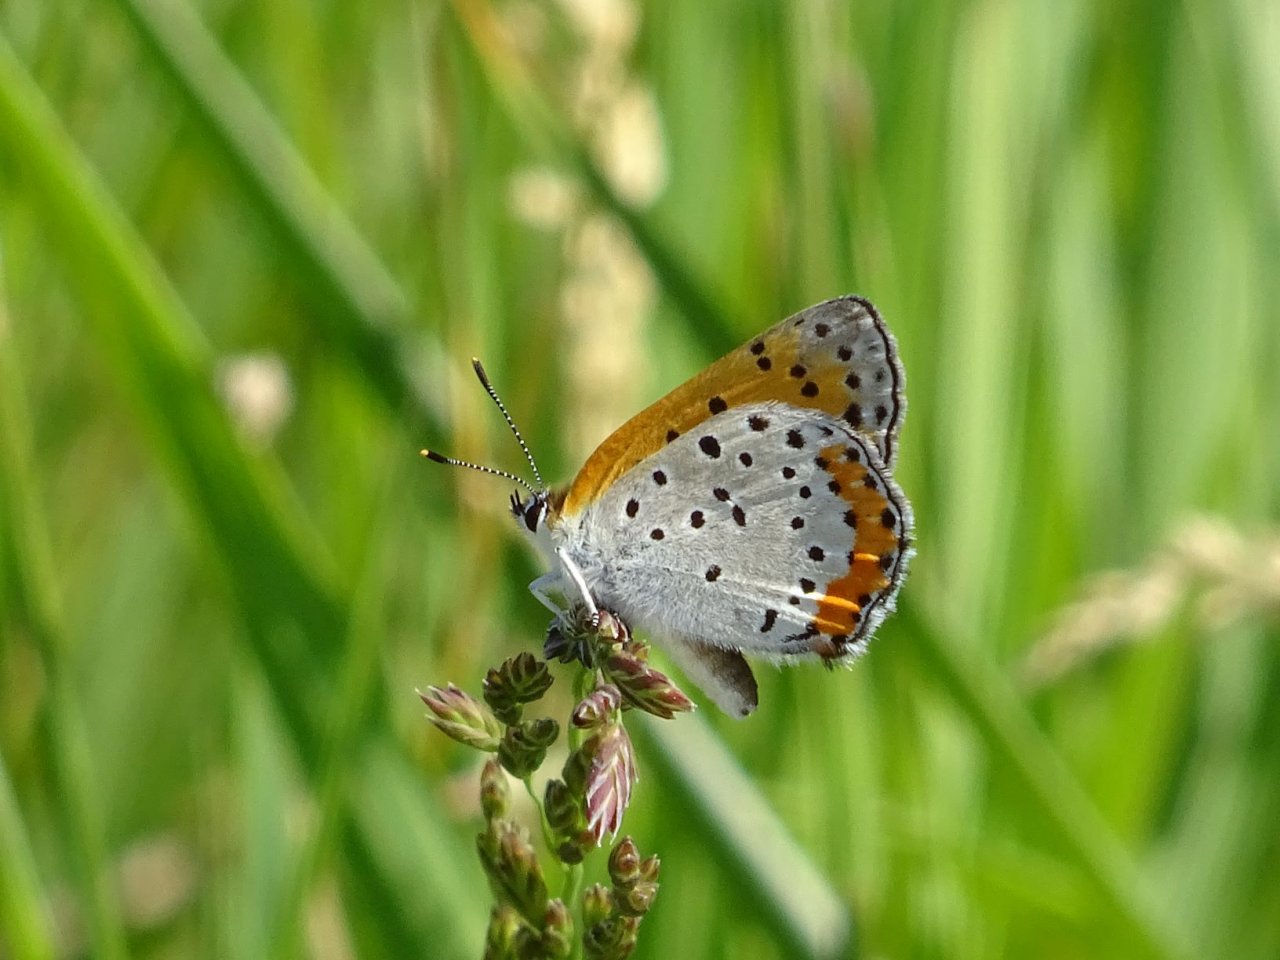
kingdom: Animalia
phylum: Arthropoda
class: Insecta
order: Lepidoptera
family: Sesiidae
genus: Sesia
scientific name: Sesia Lycaena hyllus
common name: Bronze Copper
